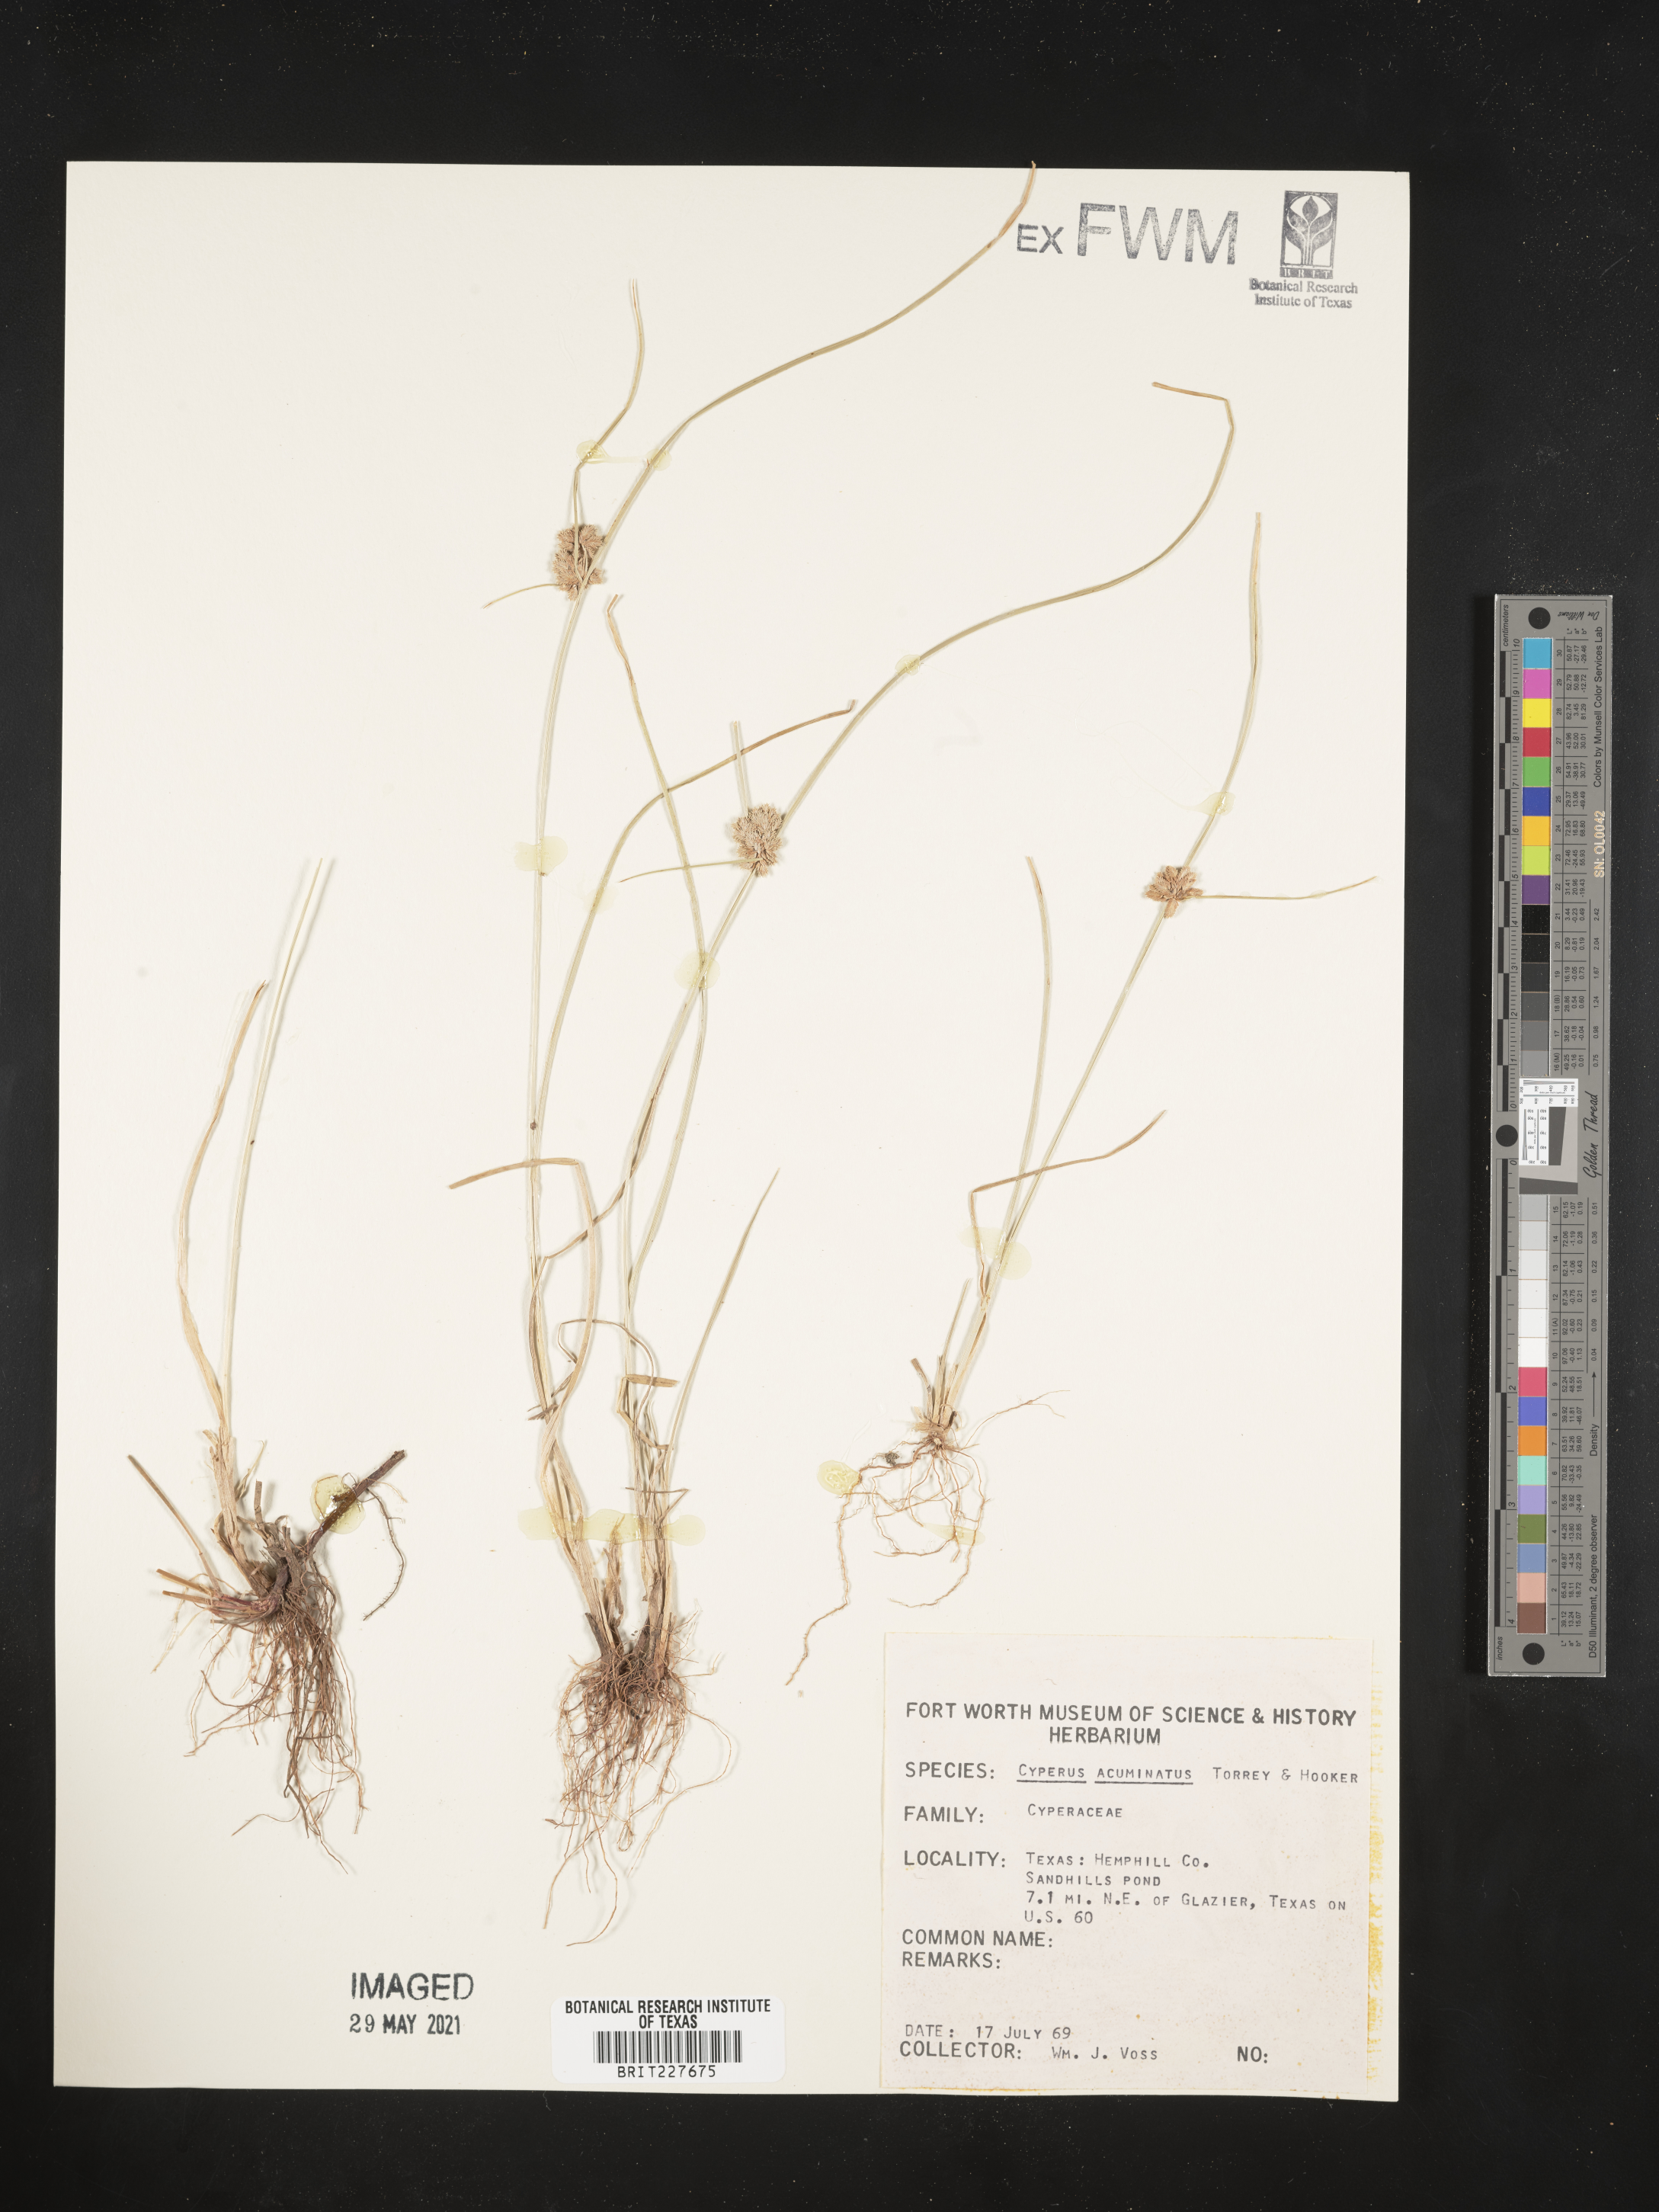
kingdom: Plantae
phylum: Tracheophyta
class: Liliopsida
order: Poales
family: Cyperaceae
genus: Cyperus
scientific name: Cyperus acuminatus
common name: Short-pointed cyperus
